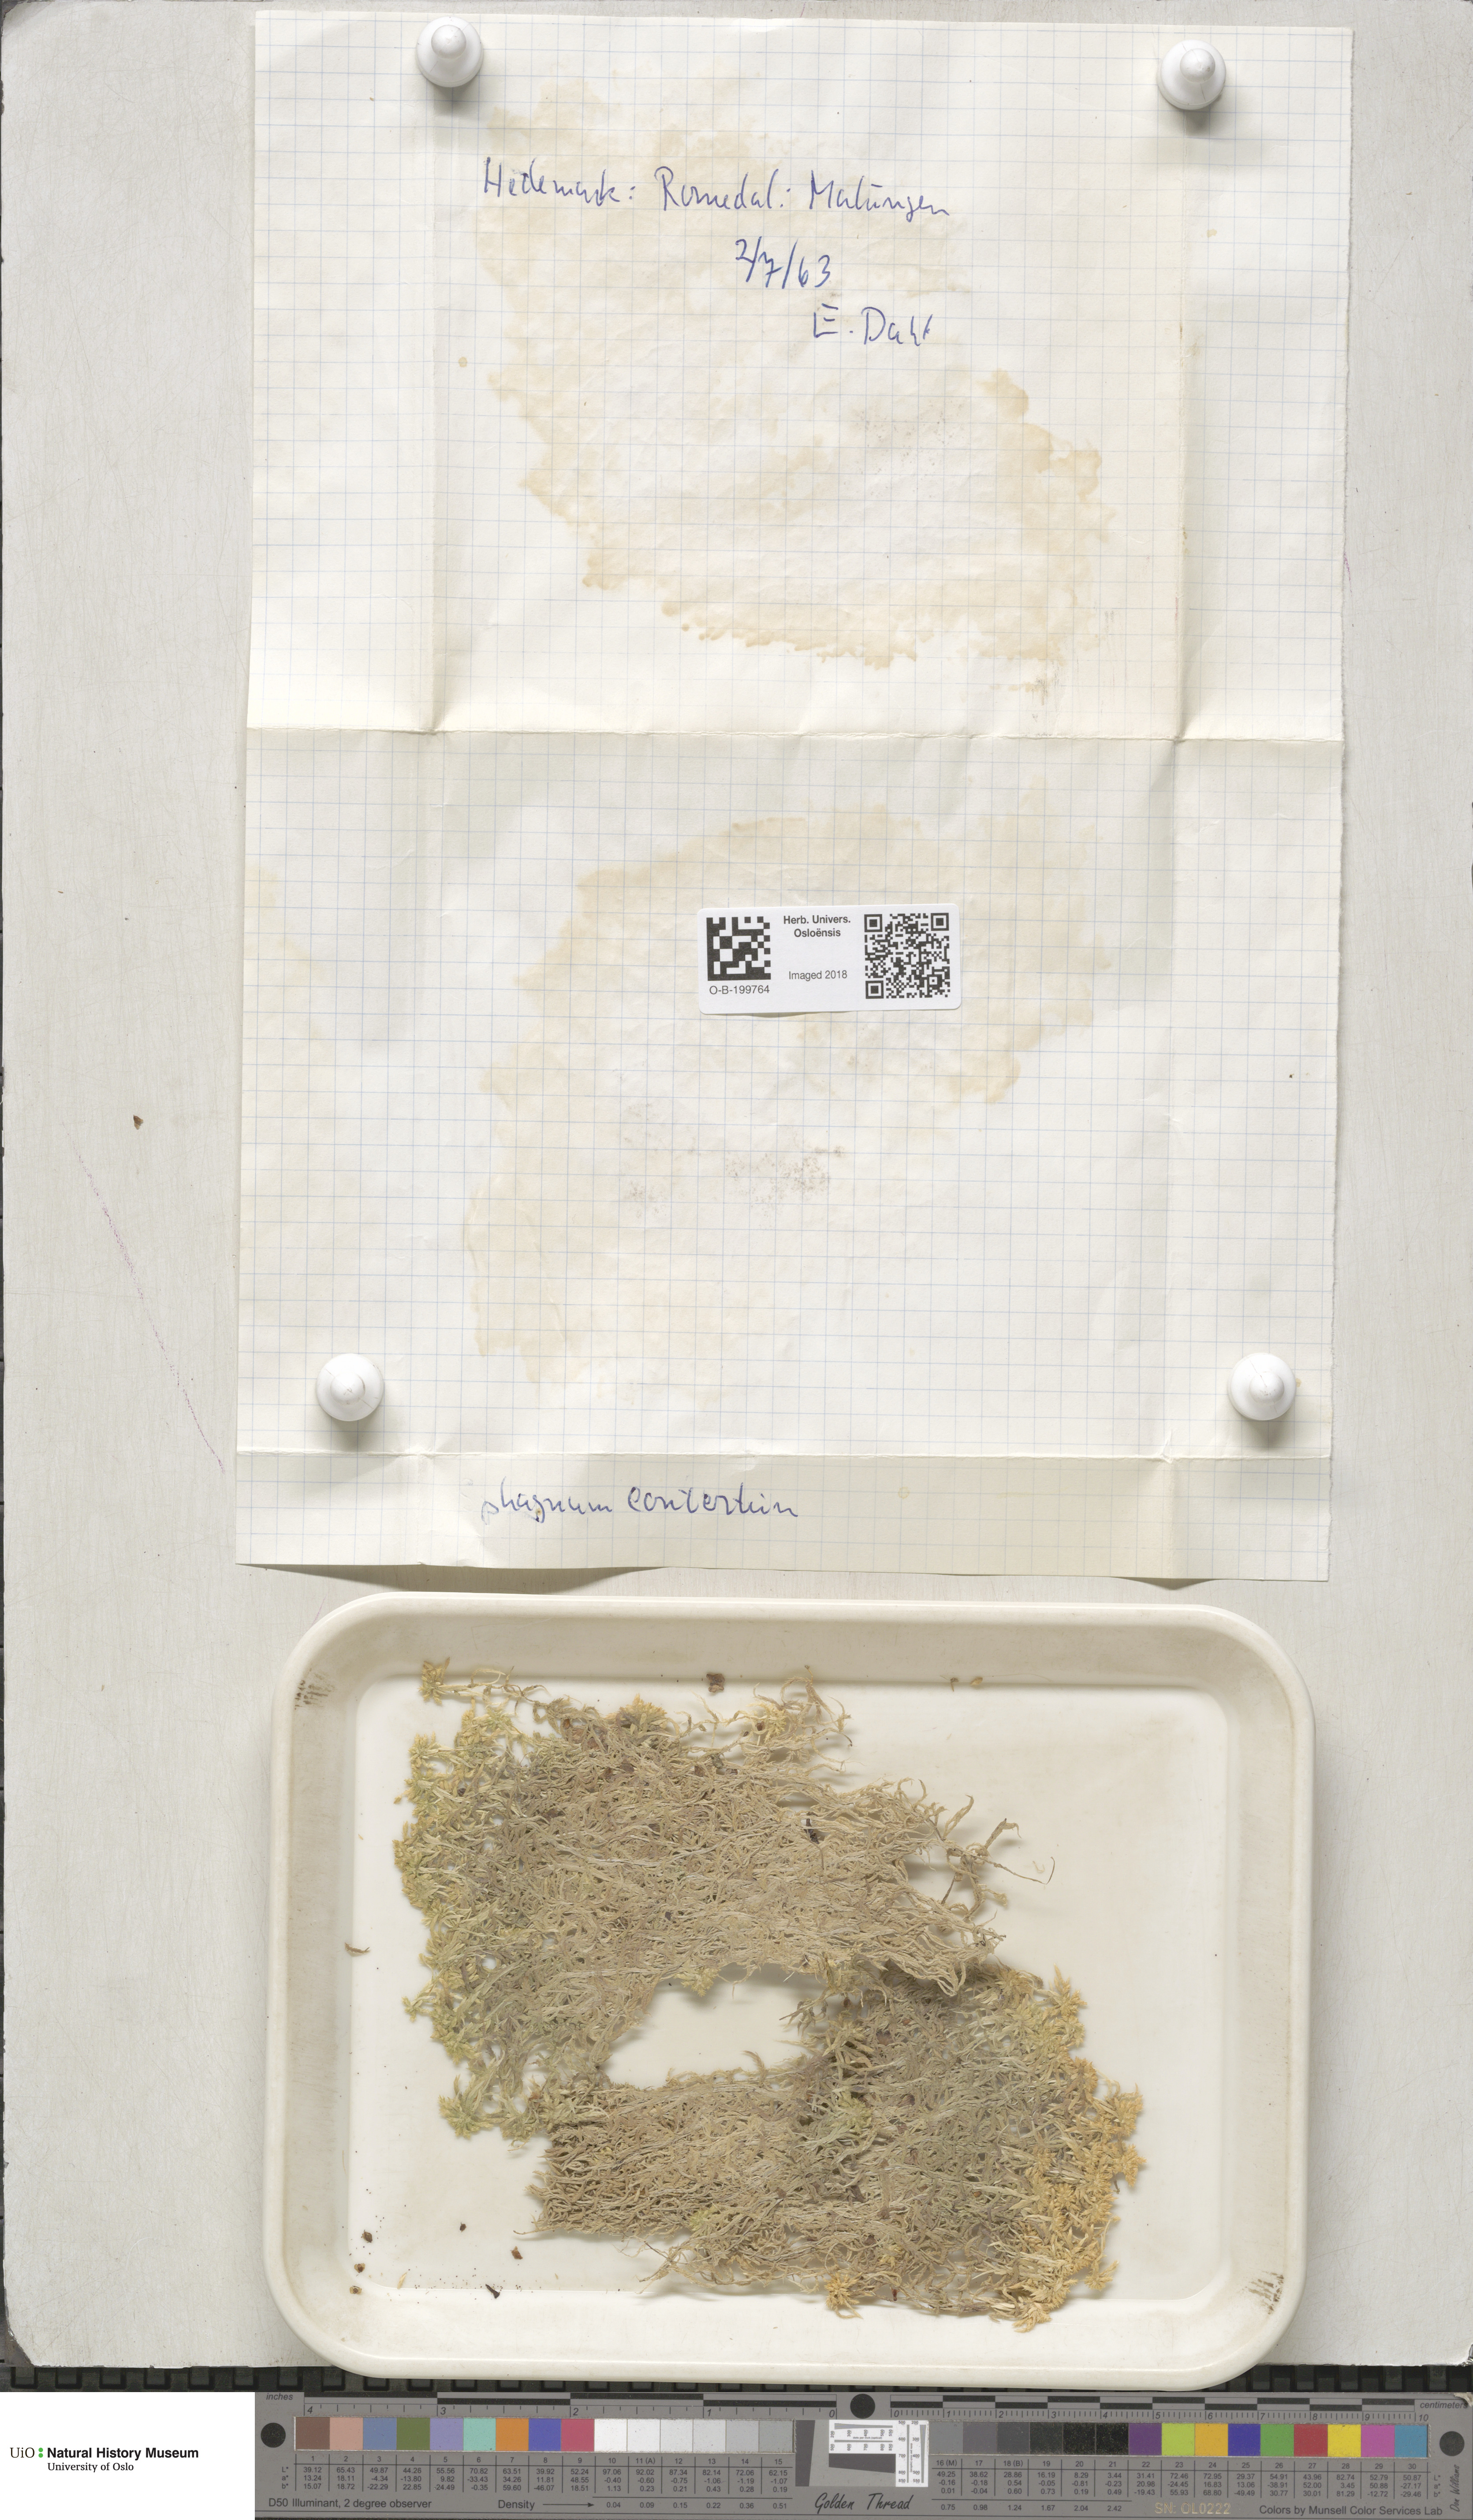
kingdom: Plantae
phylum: Bryophyta
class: Sphagnopsida
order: Sphagnales
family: Sphagnaceae
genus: Sphagnum
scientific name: Sphagnum contortum
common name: Twisted peat moss
